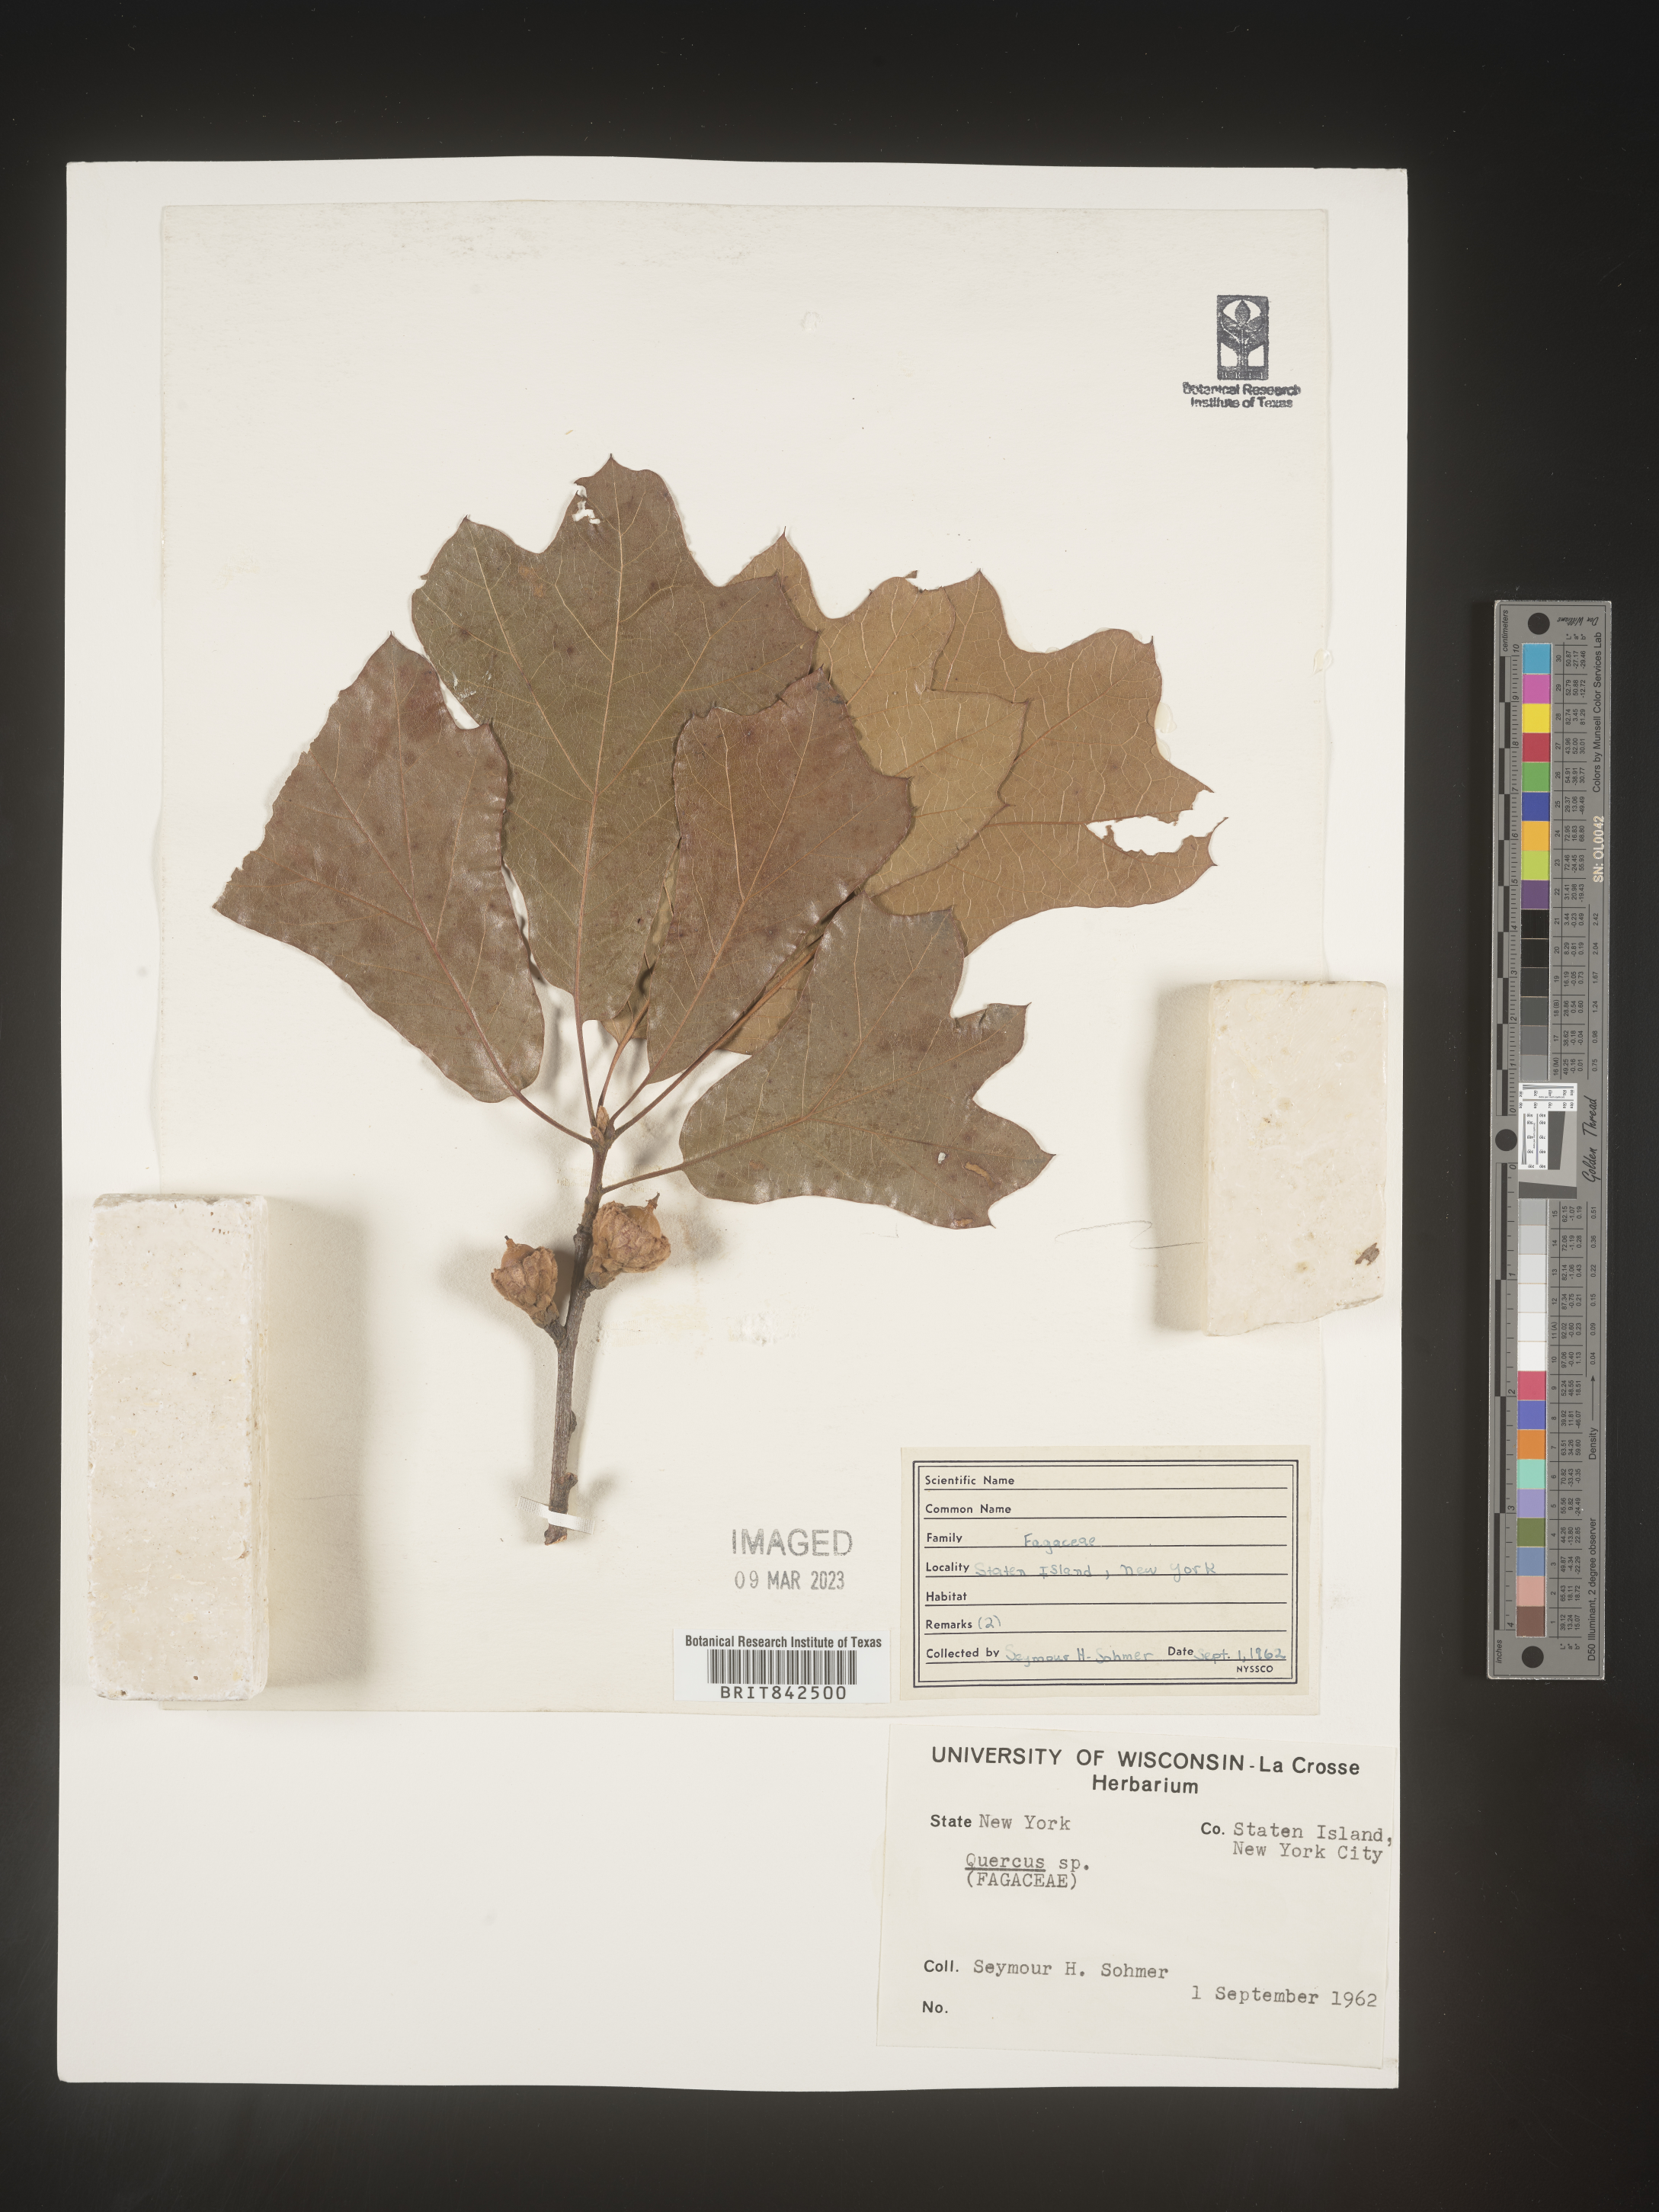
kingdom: Plantae
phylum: Tracheophyta
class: Magnoliopsida
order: Fagales
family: Fagaceae
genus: Quercus
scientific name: Quercus
